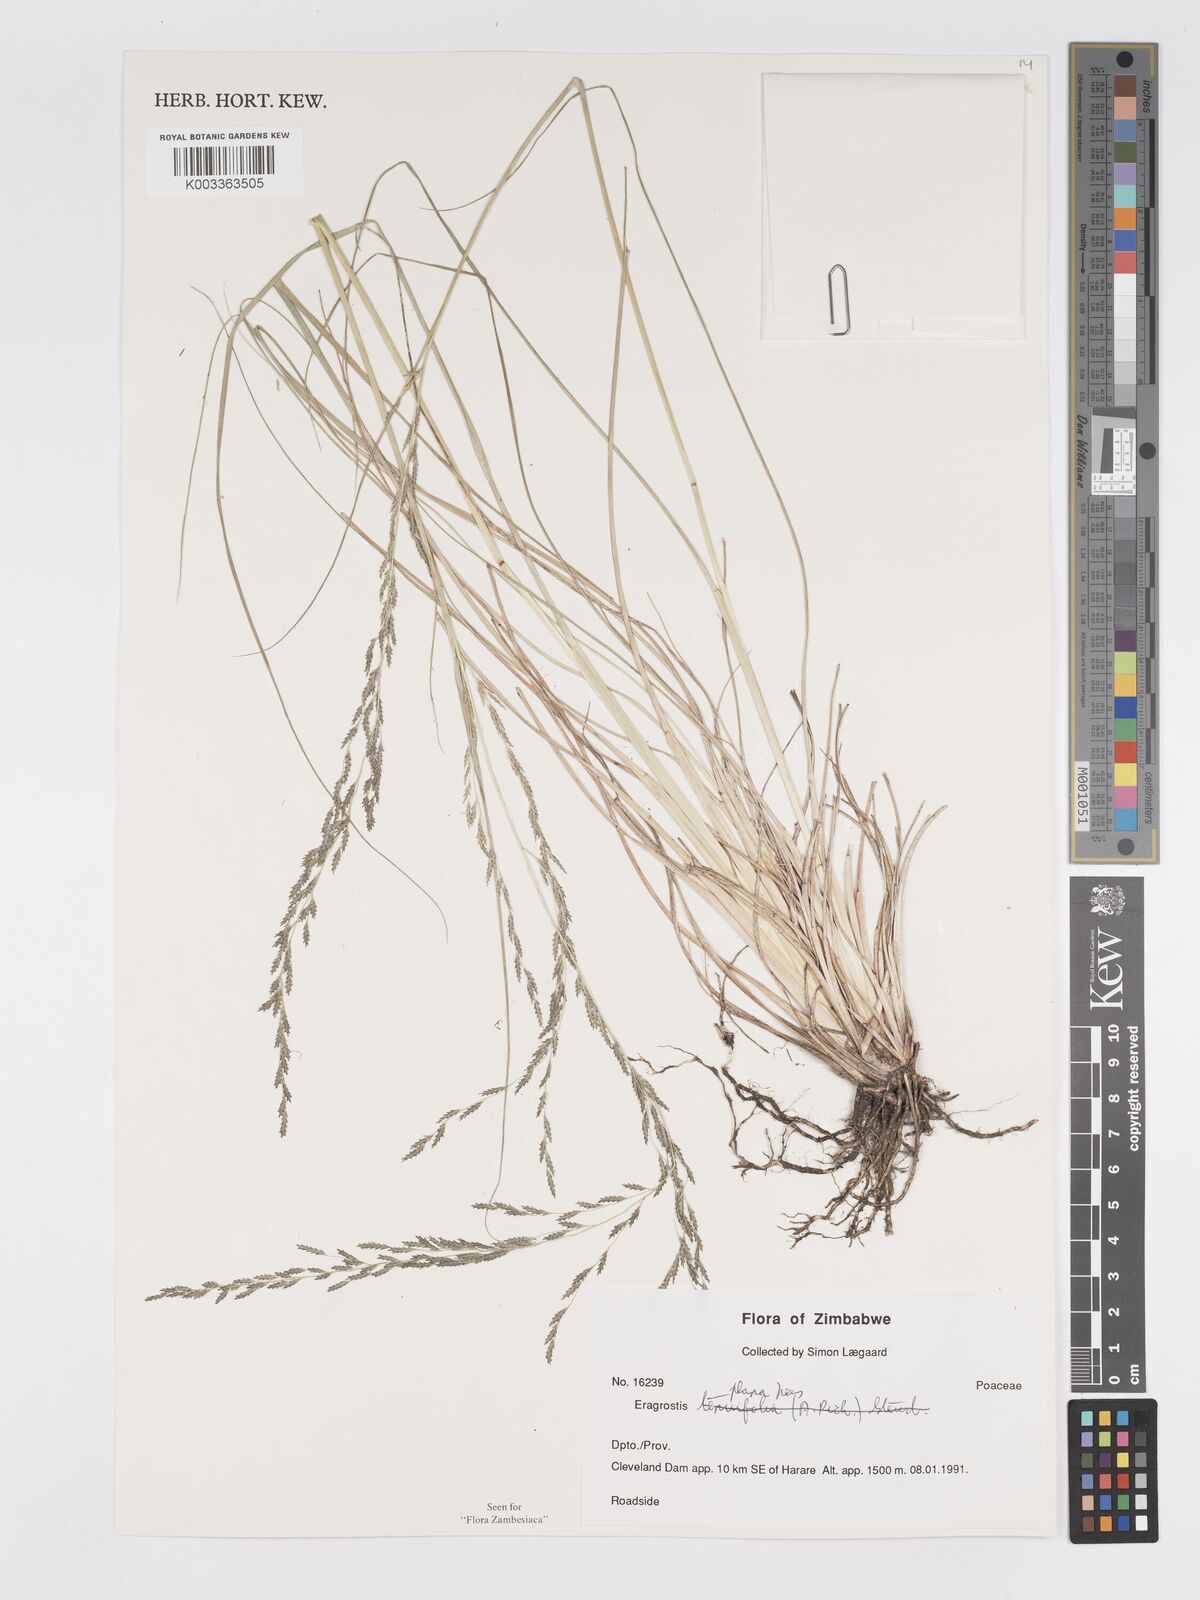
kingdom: Plantae
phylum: Tracheophyta
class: Liliopsida
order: Poales
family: Poaceae
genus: Eragrostis
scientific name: Eragrostis plana
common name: South african lovegrass
